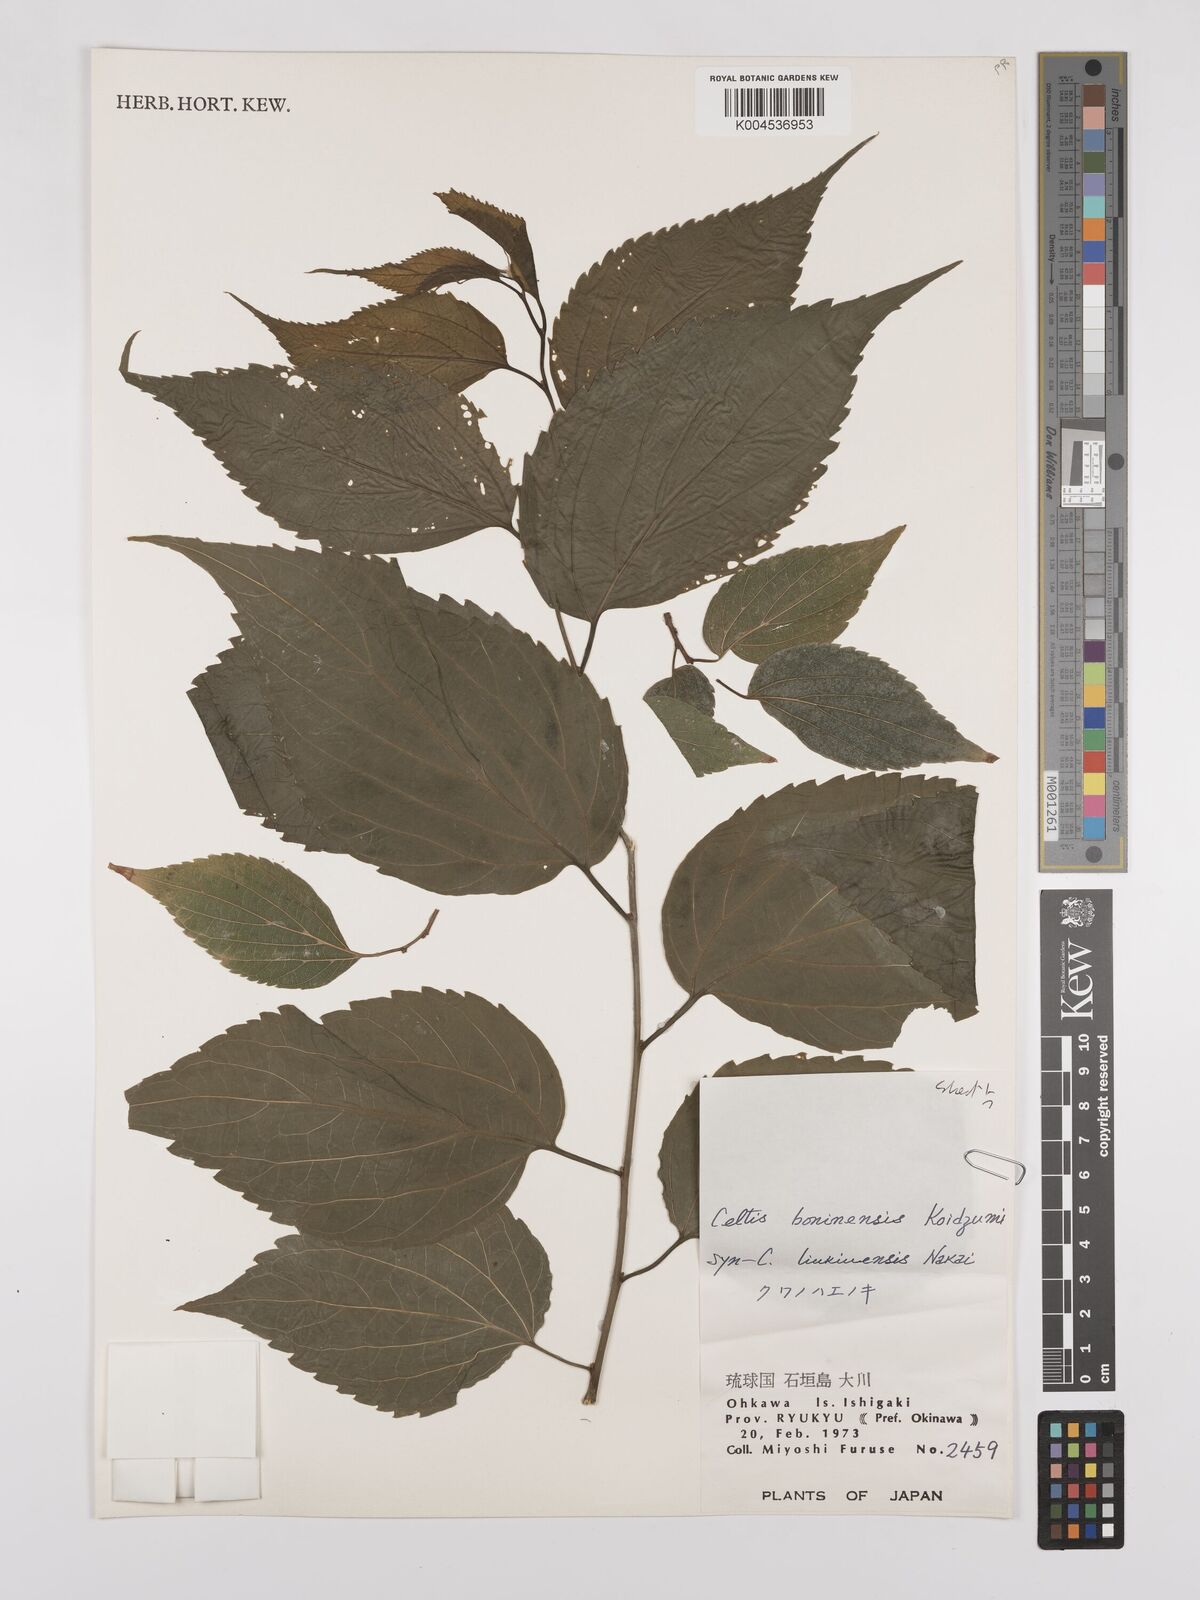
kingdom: Plantae
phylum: Tracheophyta
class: Magnoliopsida
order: Rosales
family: Cannabaceae
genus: Celtis
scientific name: Celtis boninensis
